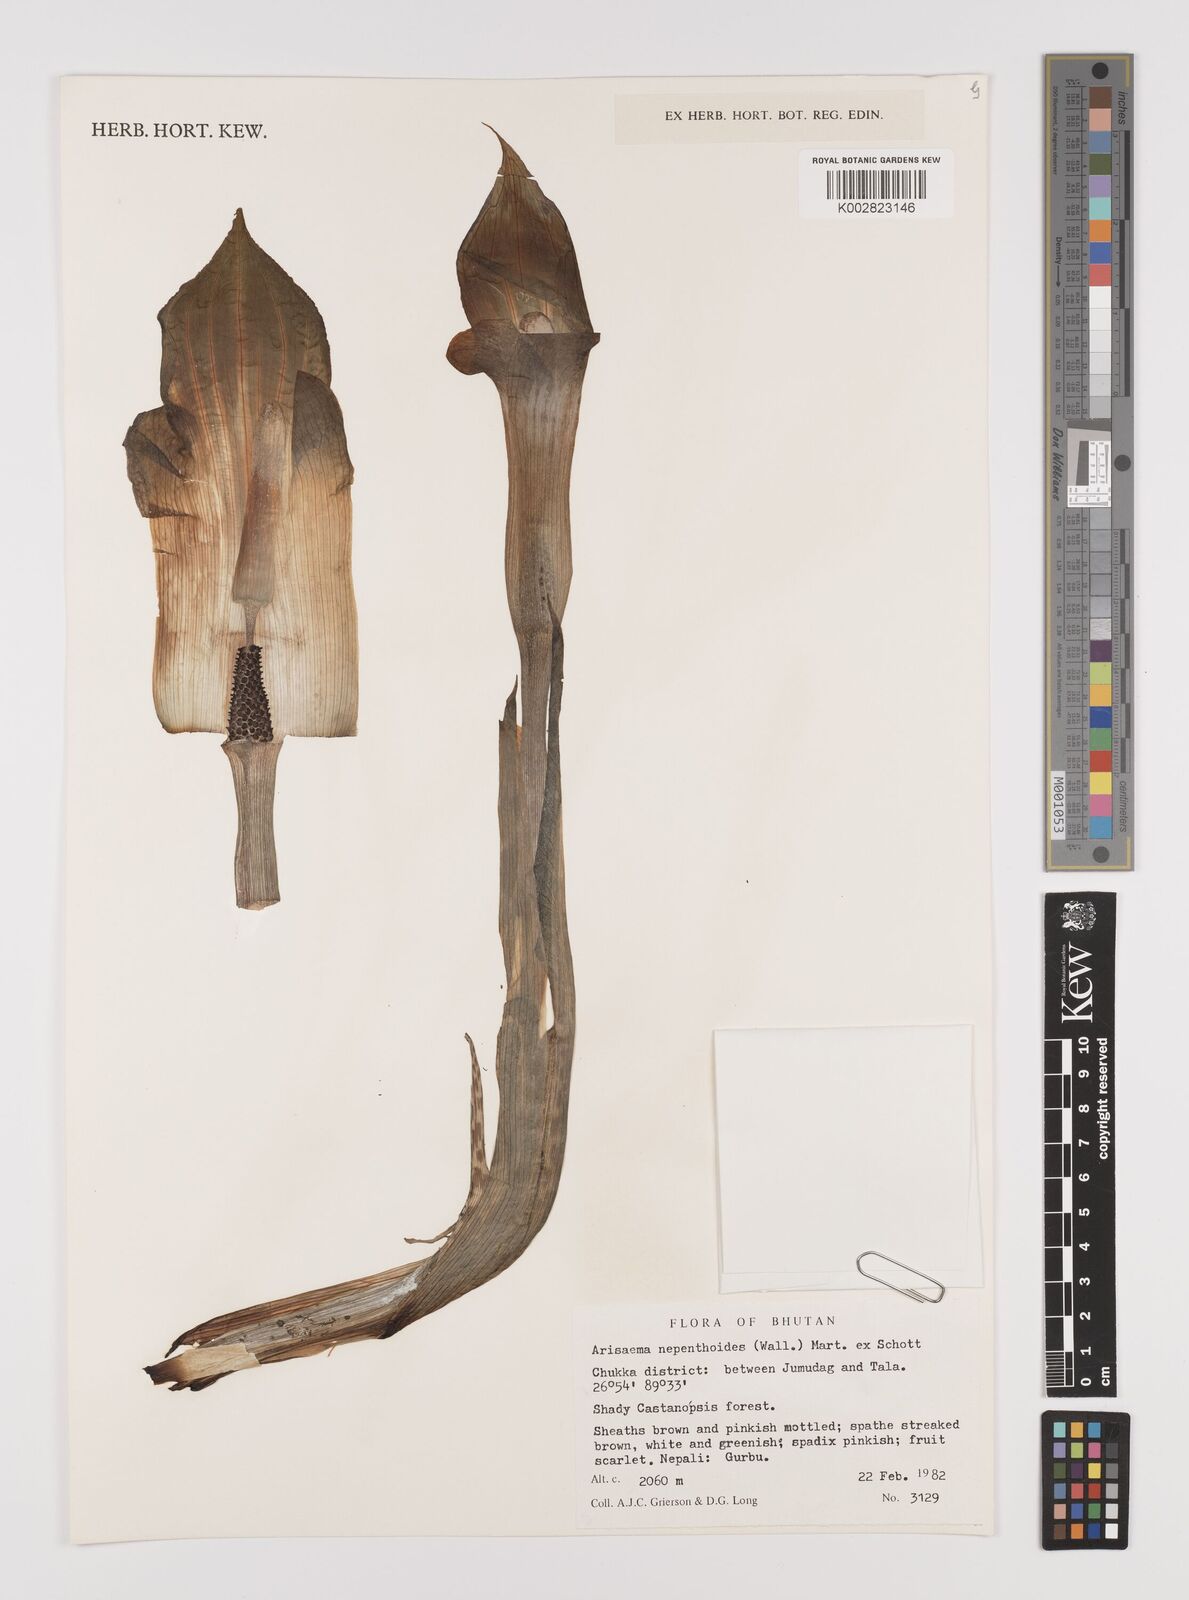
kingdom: Plantae
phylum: Tracheophyta
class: Liliopsida
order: Alismatales
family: Araceae
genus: Arisaema
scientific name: Arisaema nepenthoides
